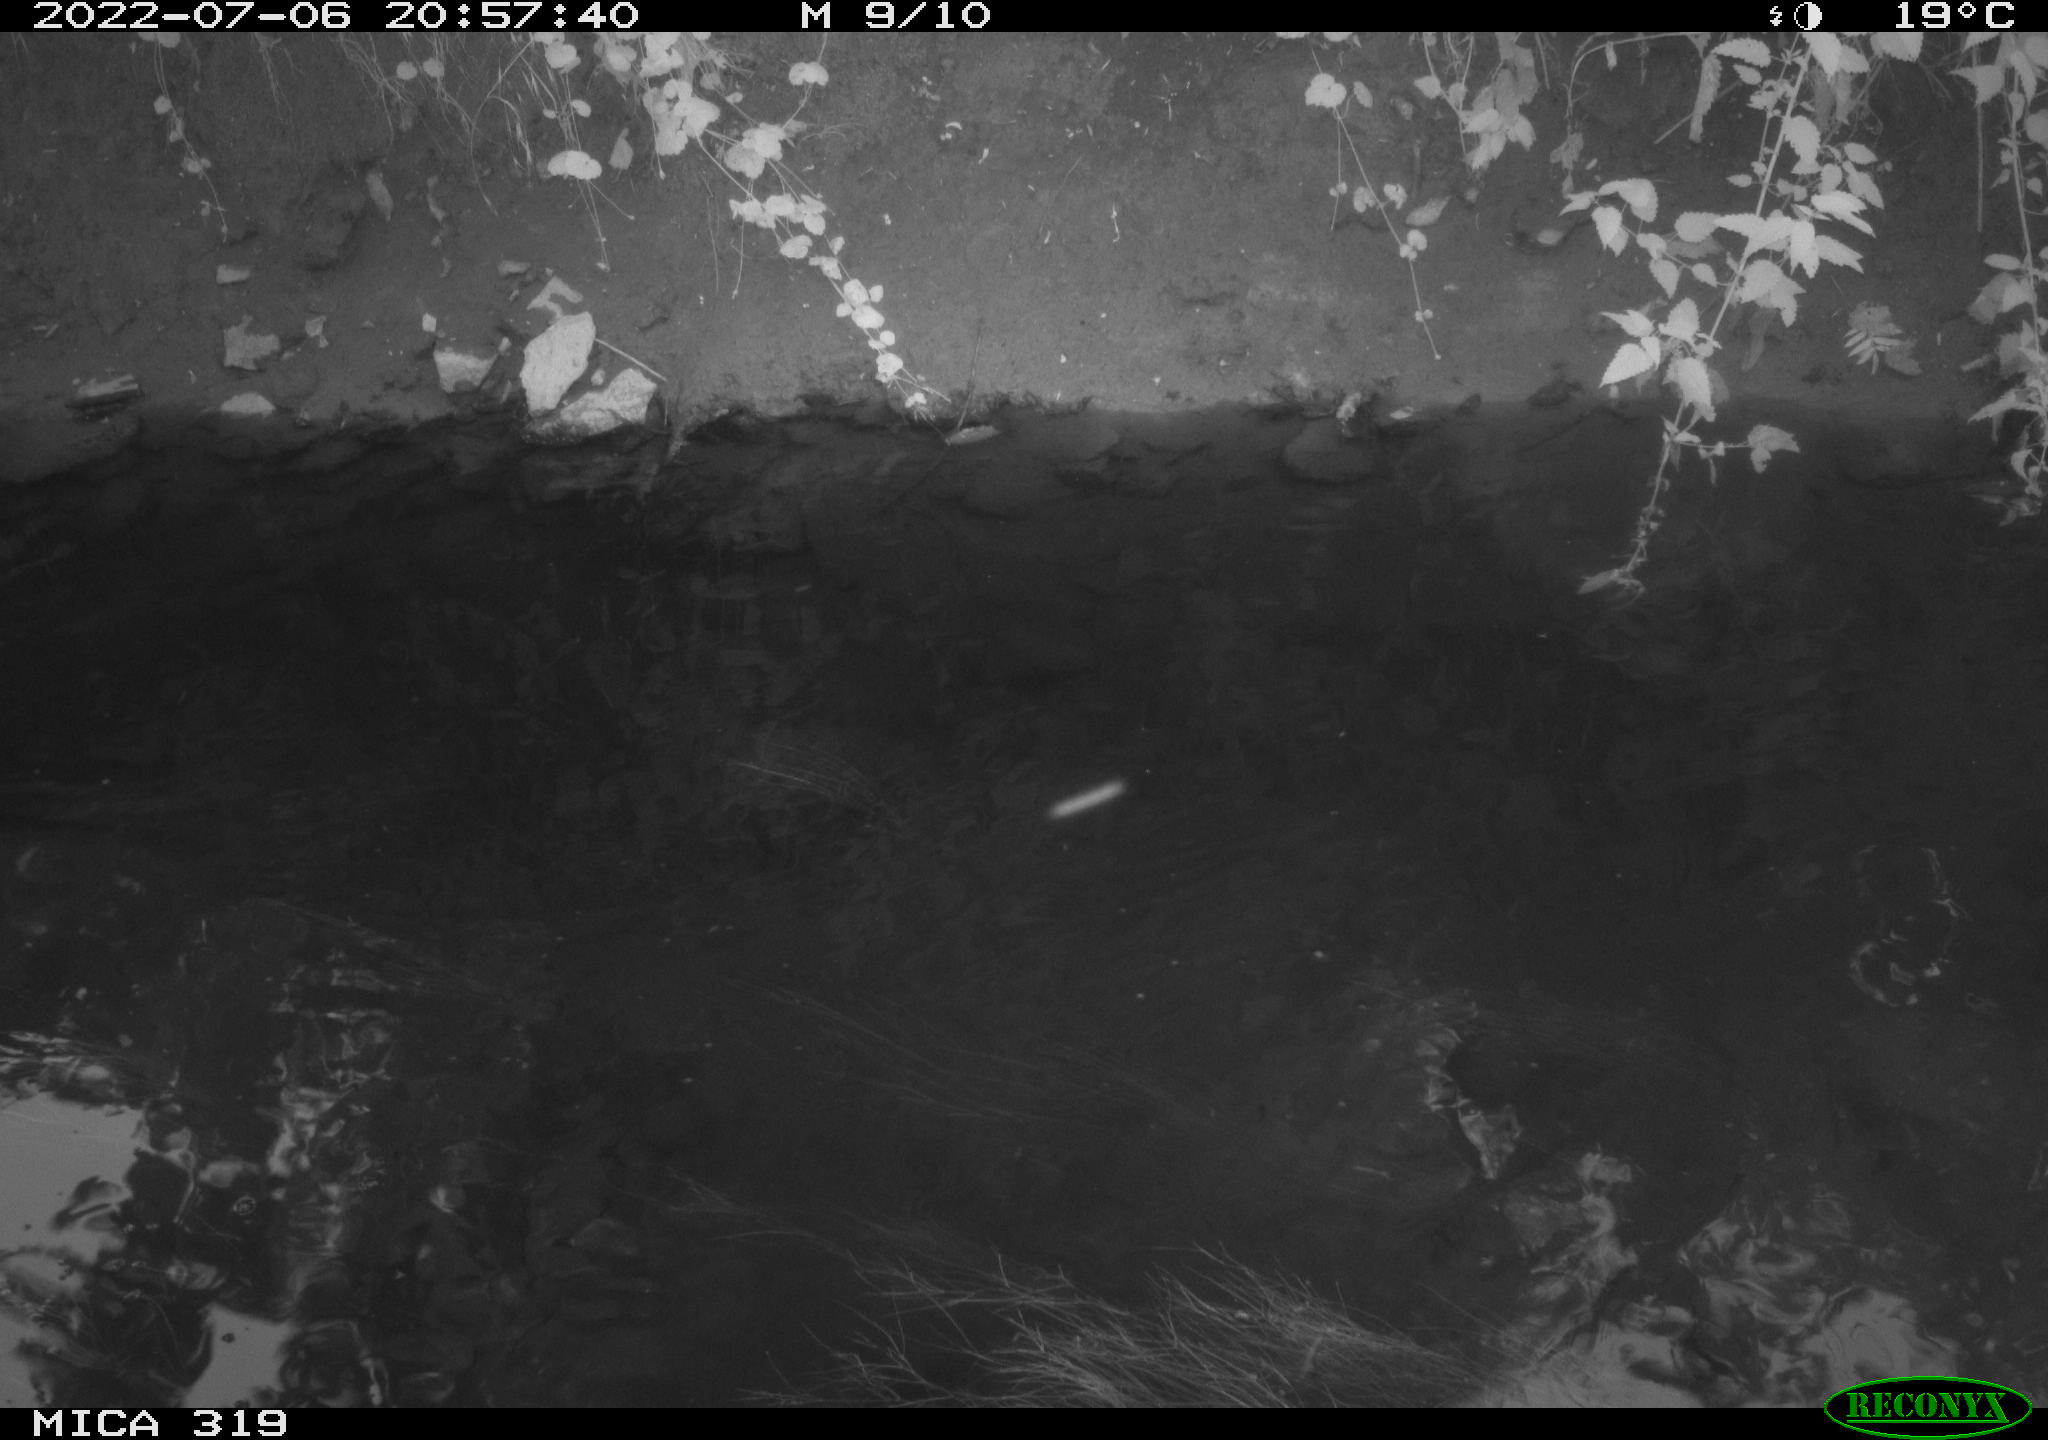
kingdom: Animalia
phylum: Chordata
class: Aves
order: Gruiformes
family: Rallidae
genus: Gallinula
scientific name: Gallinula chloropus
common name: Common moorhen
